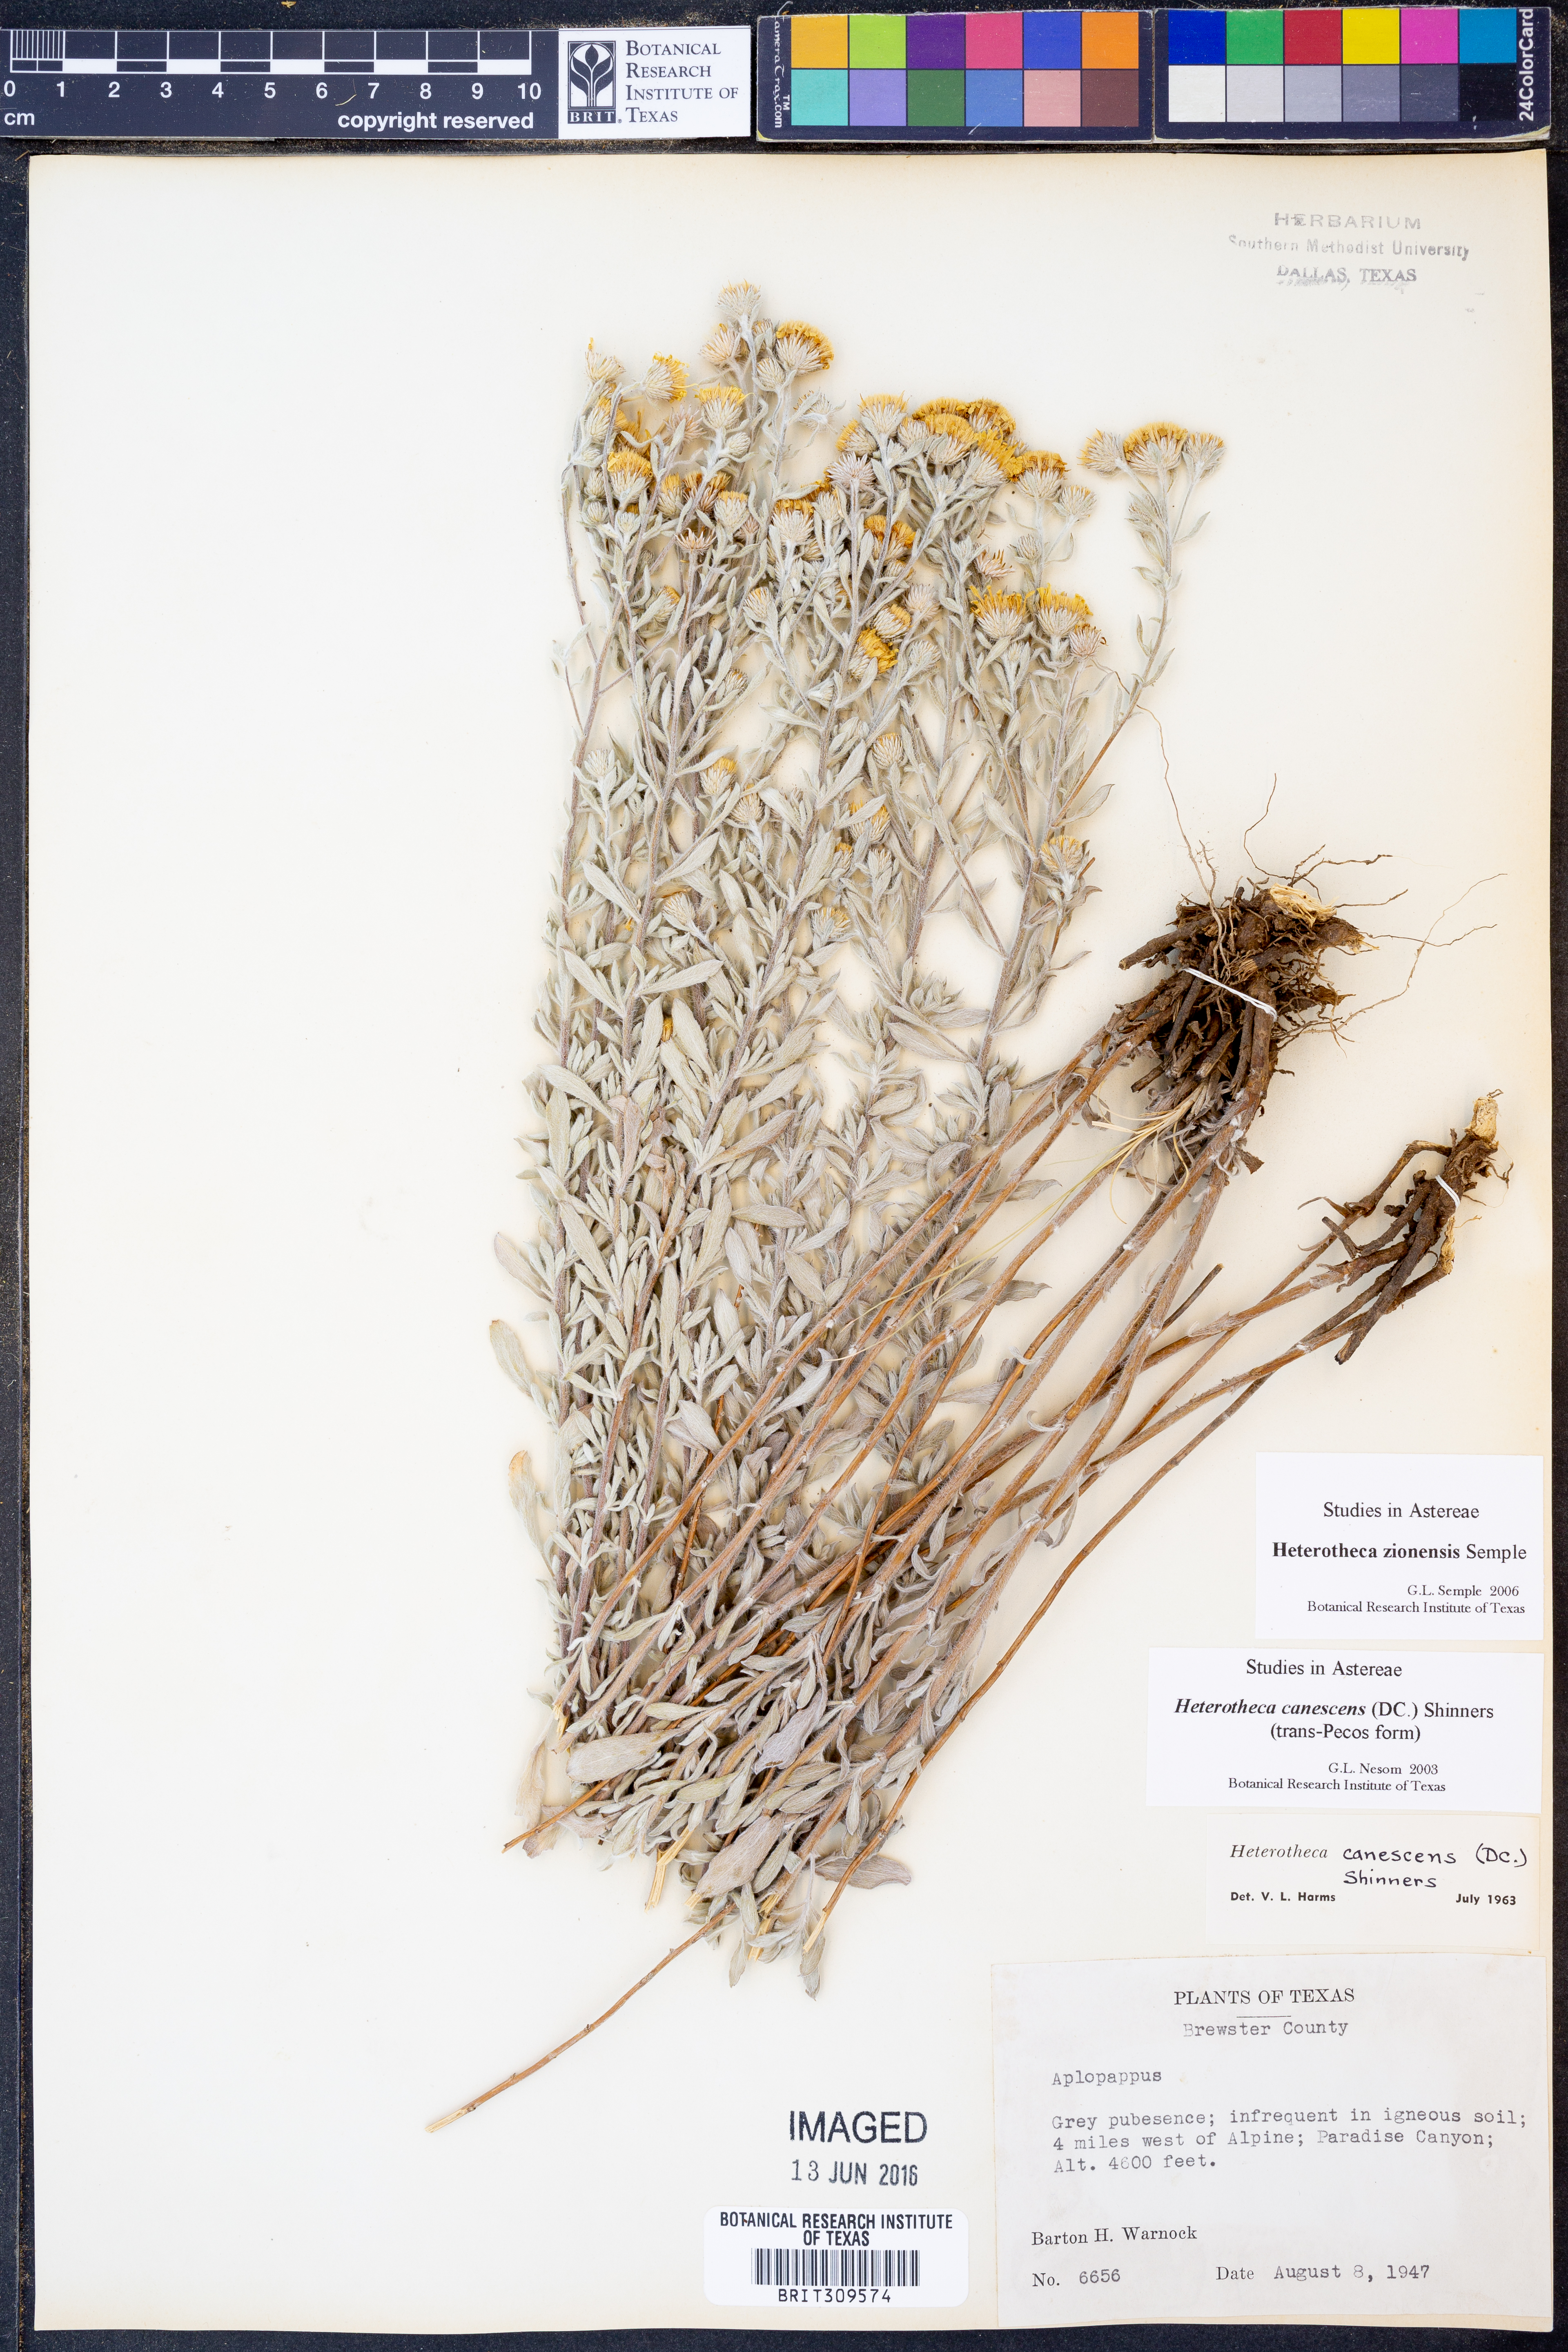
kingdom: Plantae
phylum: Tracheophyta
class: Magnoliopsida
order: Asterales
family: Asteraceae
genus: Heterotheca
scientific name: Heterotheca zionensis
